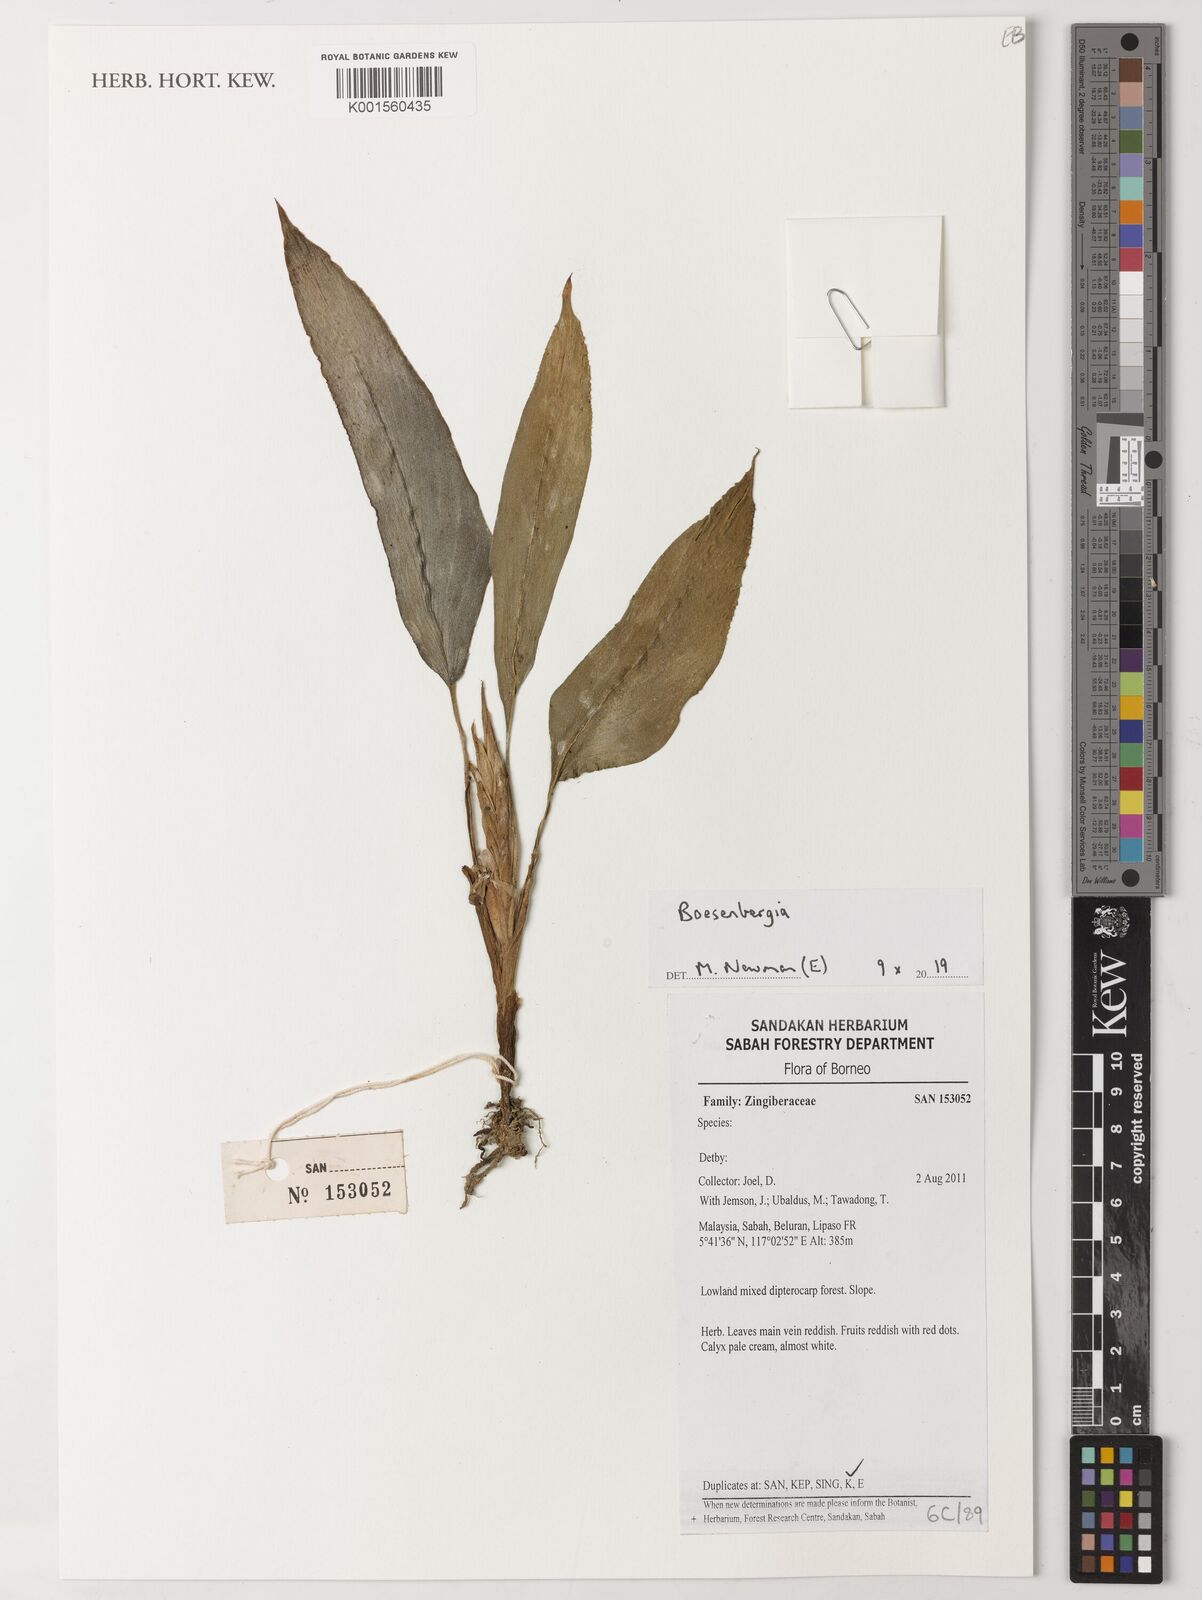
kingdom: Plantae
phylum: Tracheophyta
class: Liliopsida
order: Zingiberales
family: Zingiberaceae
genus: Boesenbergia
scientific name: Boesenbergia
